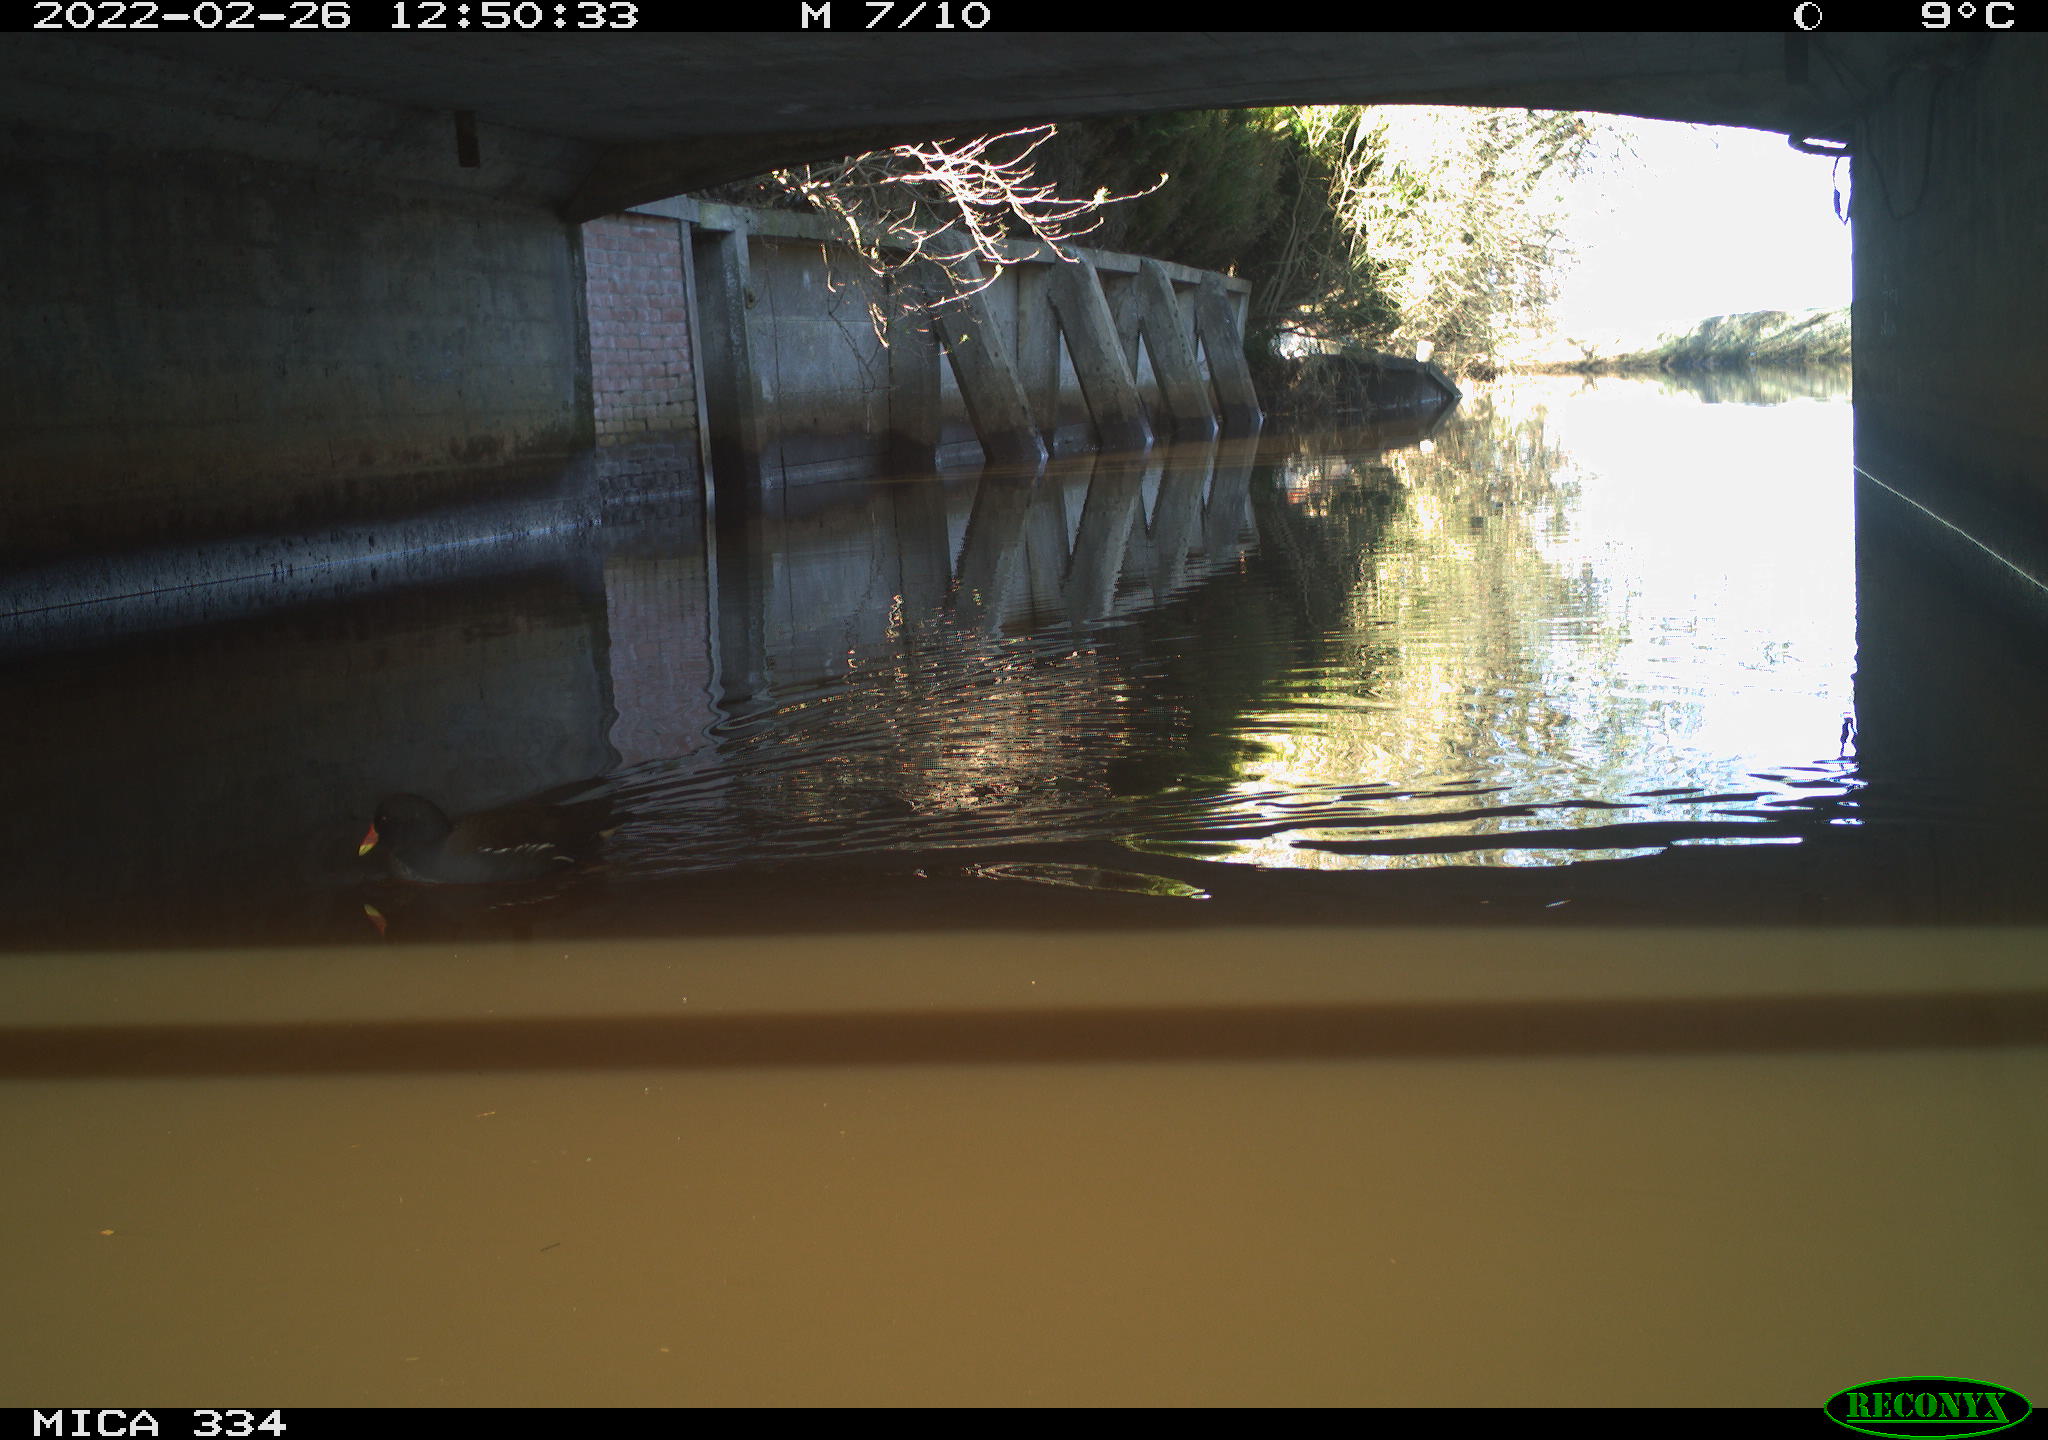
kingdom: Animalia
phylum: Chordata
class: Aves
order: Gruiformes
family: Rallidae
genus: Gallinula
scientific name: Gallinula chloropus
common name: Common moorhen
